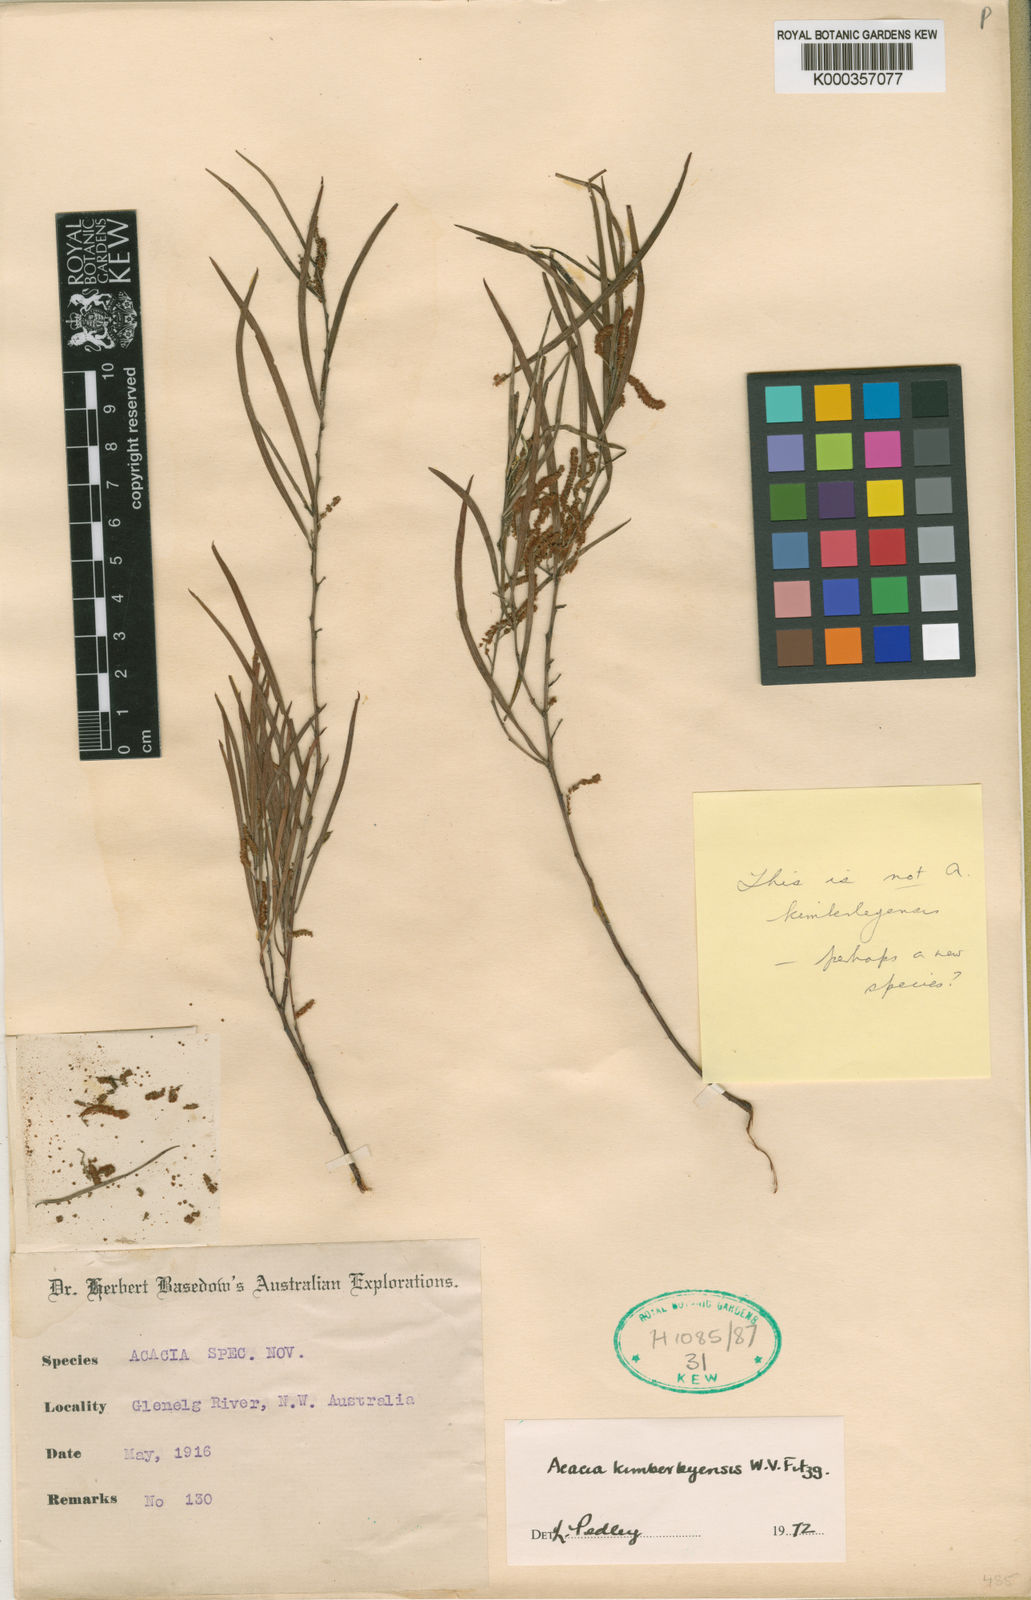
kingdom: Plantae
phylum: Tracheophyta
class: Magnoliopsida
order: Fabales
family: Fabaceae
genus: Acacia
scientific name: Acacia kimberleyensis
